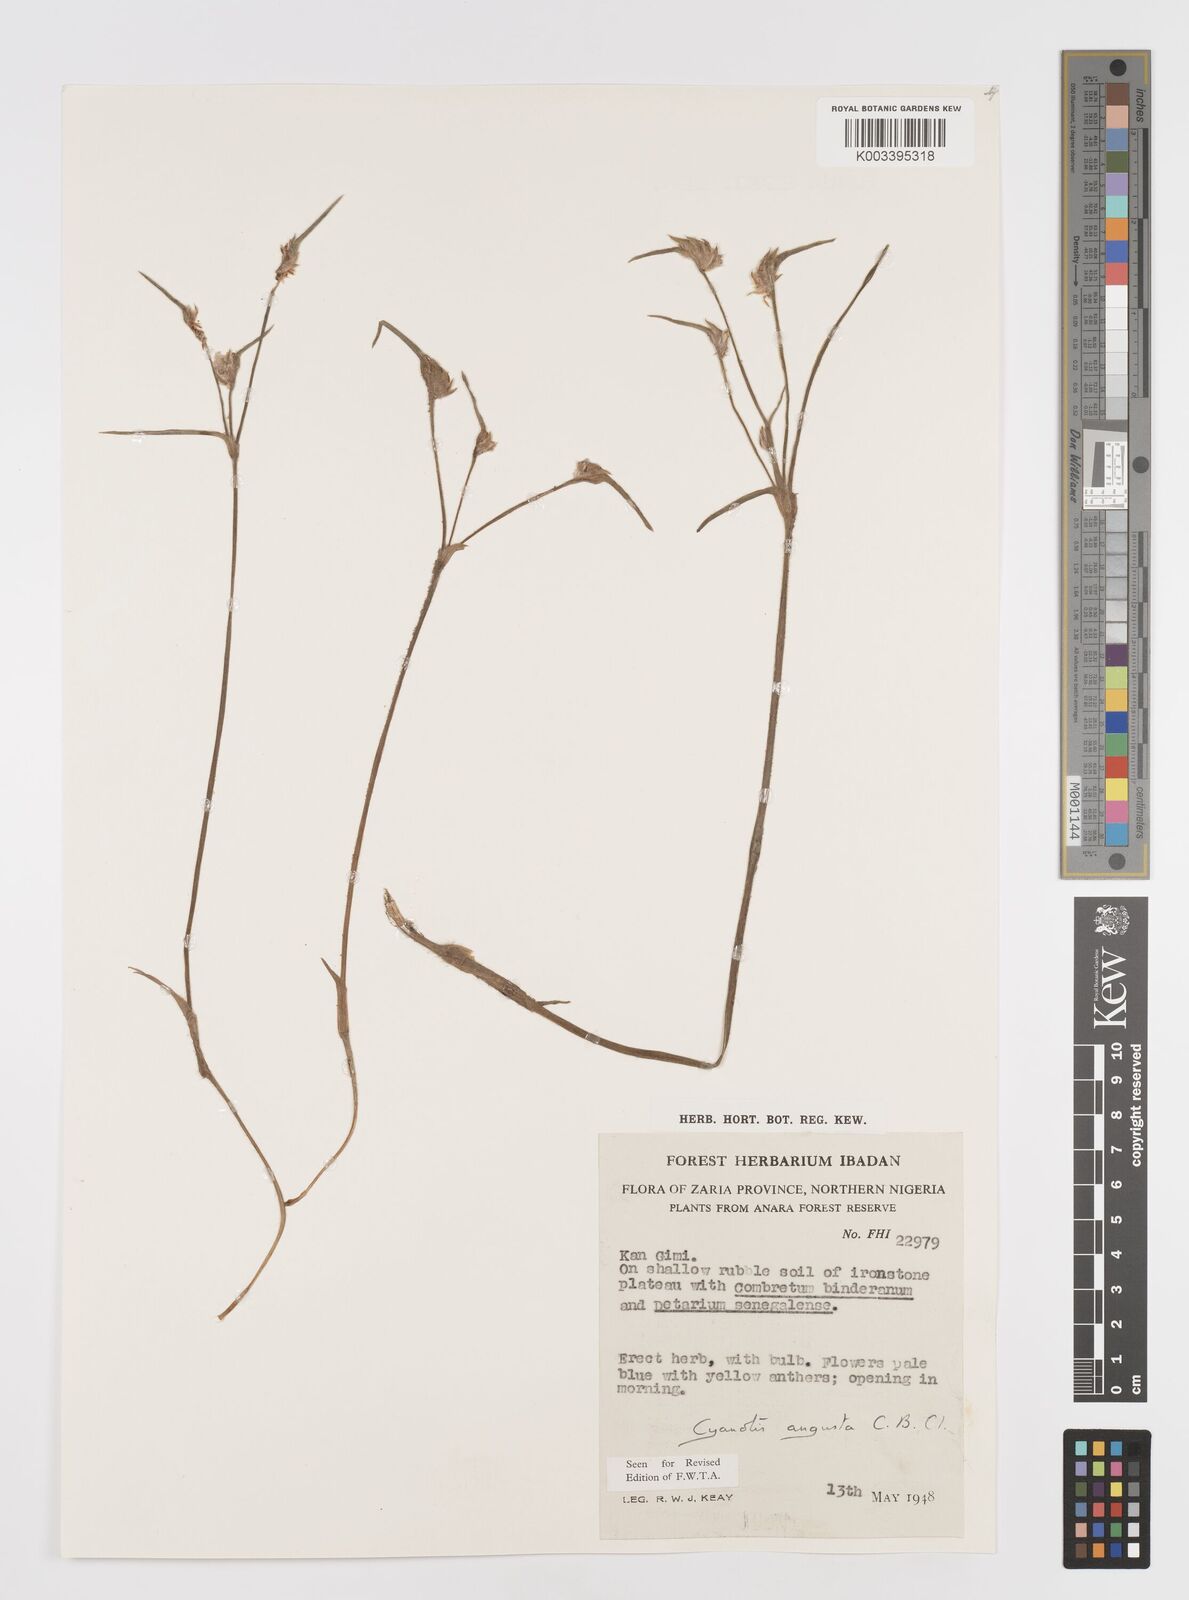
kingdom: Plantae
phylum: Tracheophyta
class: Liliopsida
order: Commelinales
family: Commelinaceae
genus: Cyanotis
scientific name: Cyanotis angusta
